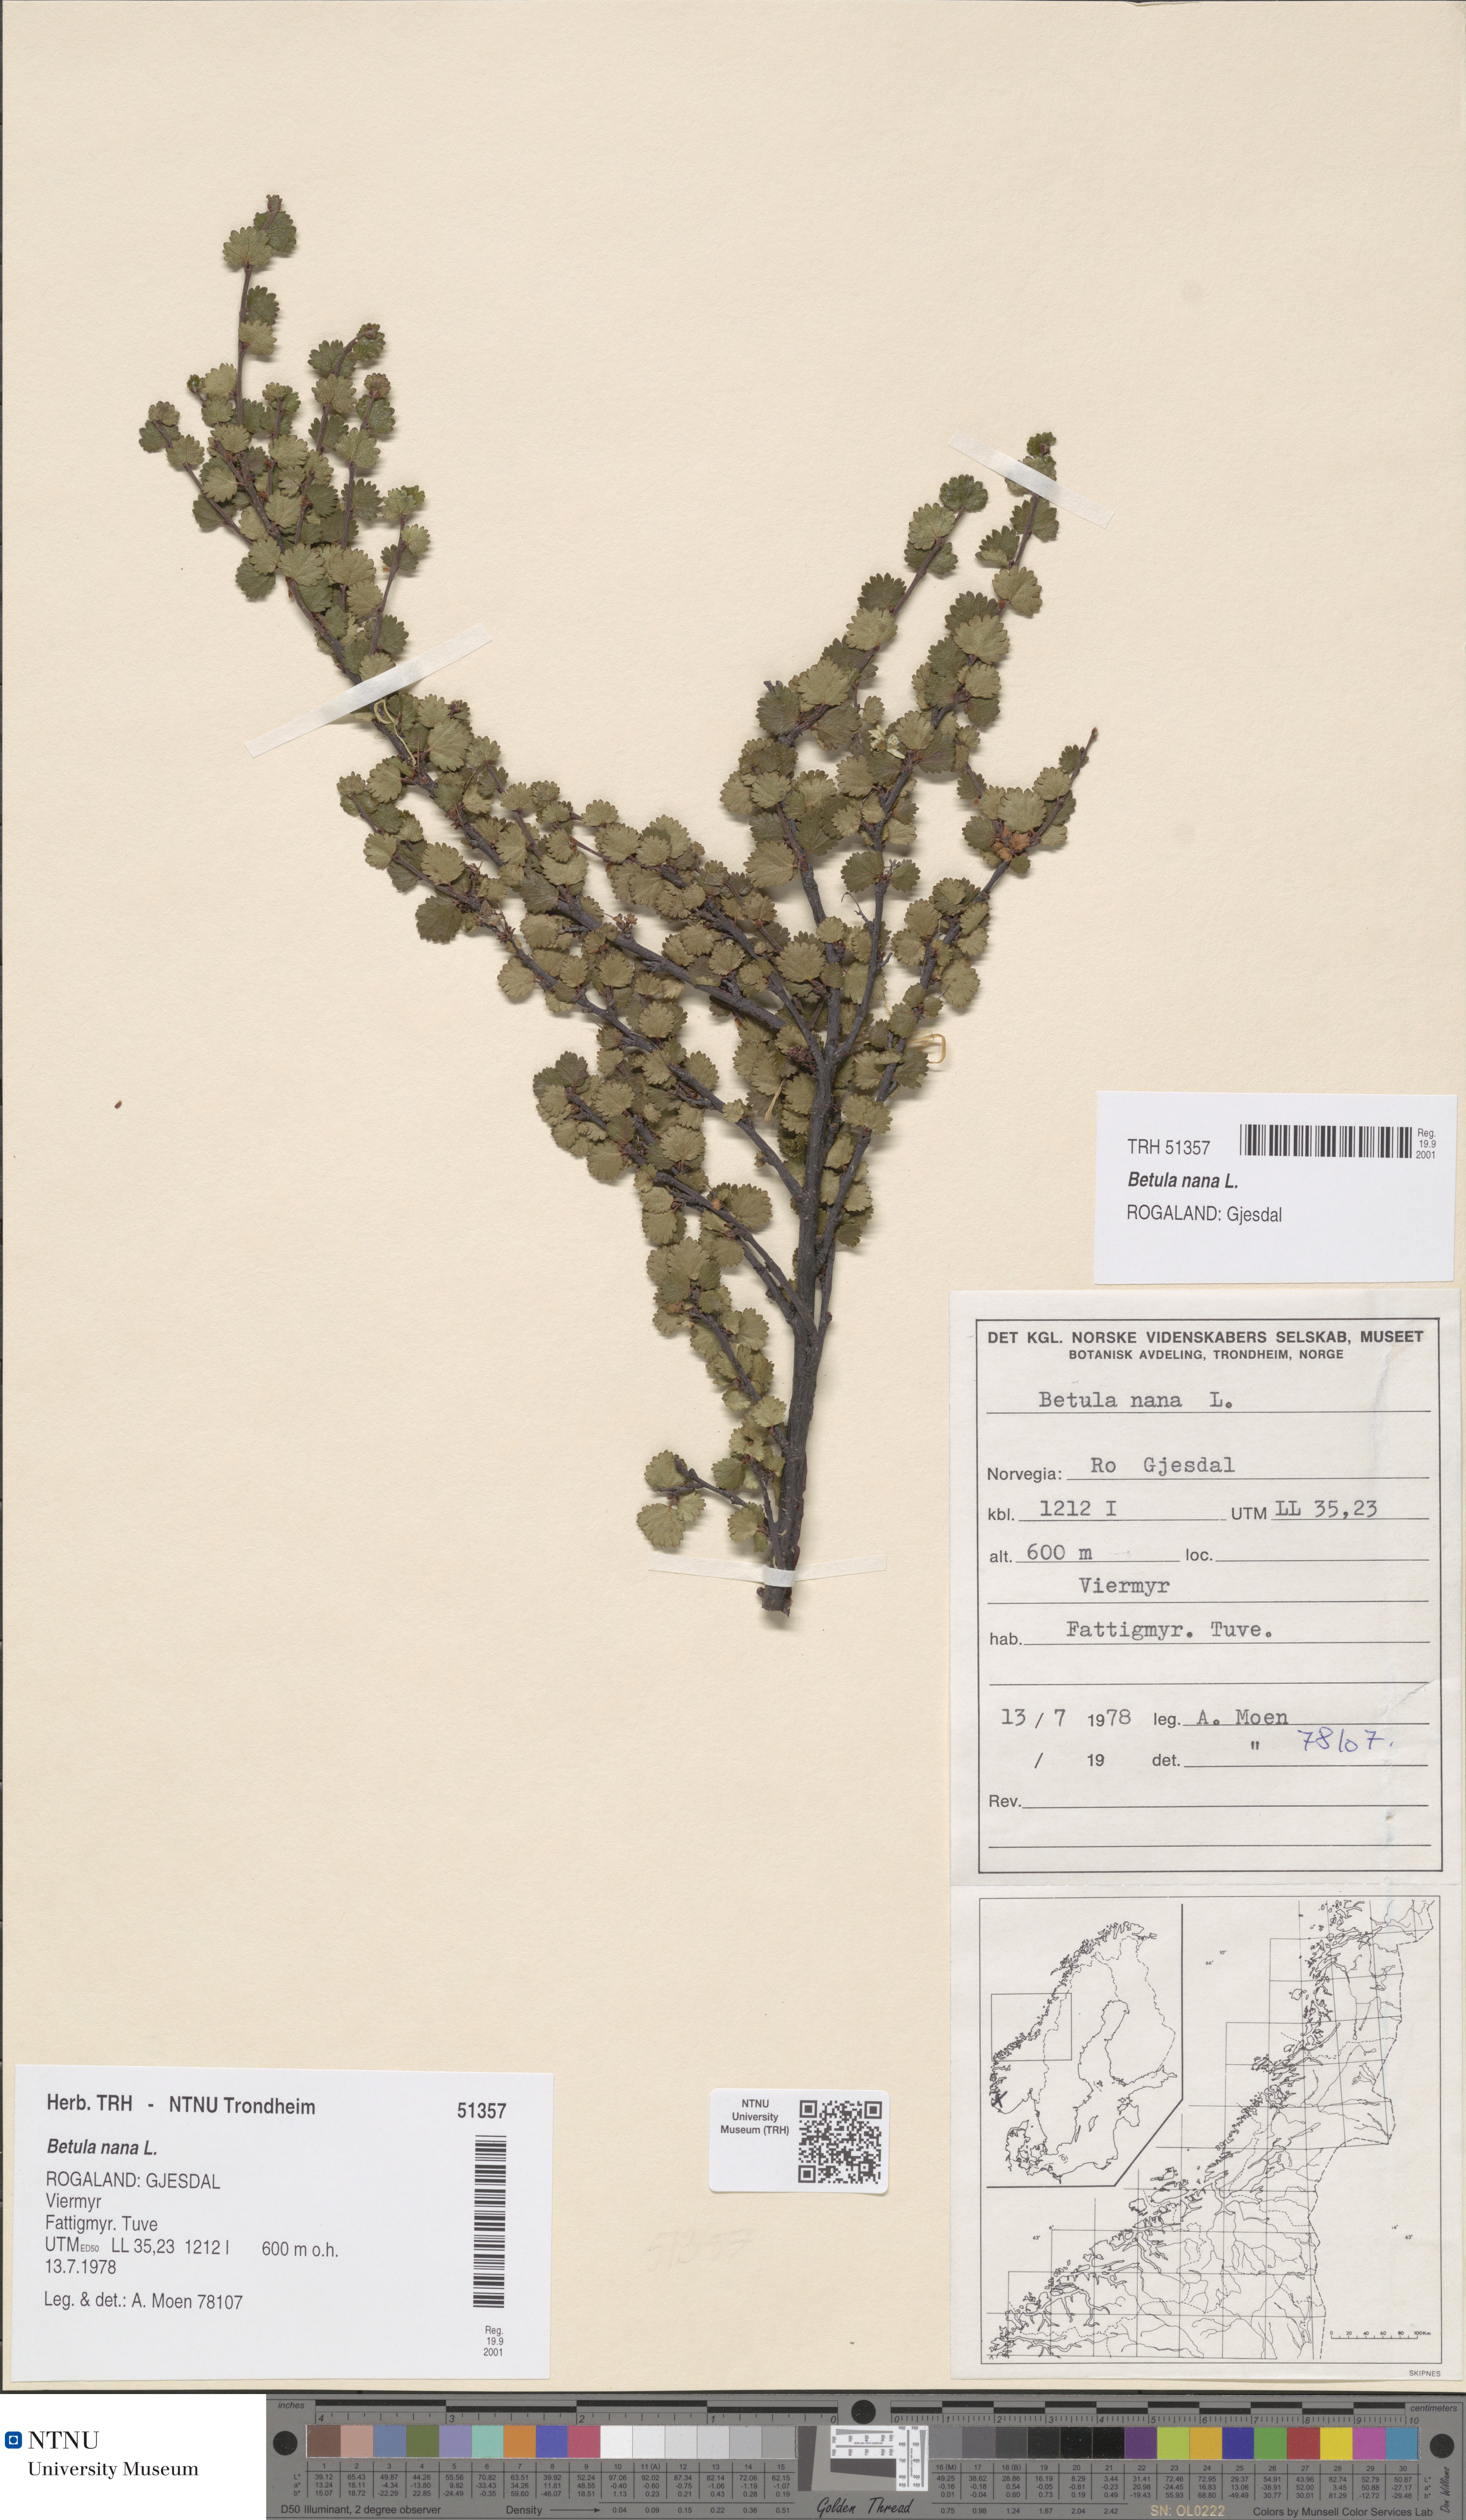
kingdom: Plantae
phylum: Tracheophyta
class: Magnoliopsida
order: Fagales
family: Betulaceae
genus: Betula
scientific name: Betula nana
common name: Arctic dwarf birch
